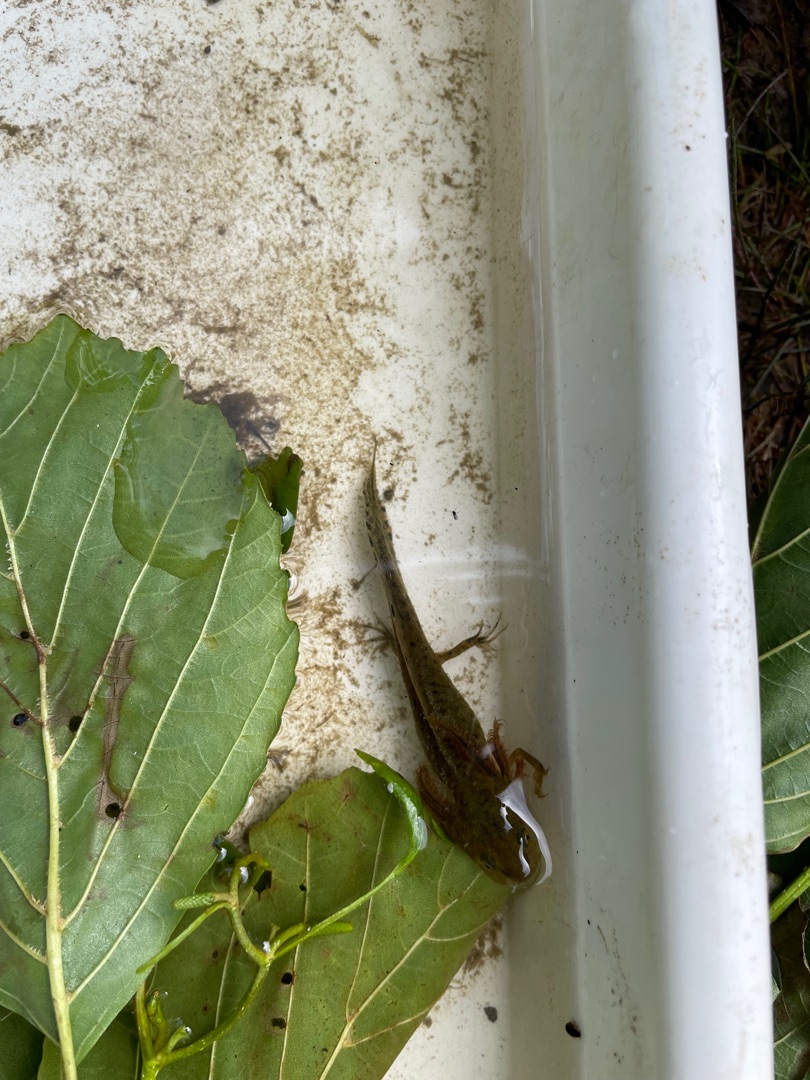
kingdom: Animalia
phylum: Chordata
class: Amphibia
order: Caudata
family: Salamandridae
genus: Triturus
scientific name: Triturus cristatus
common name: Stor vandsalamander
